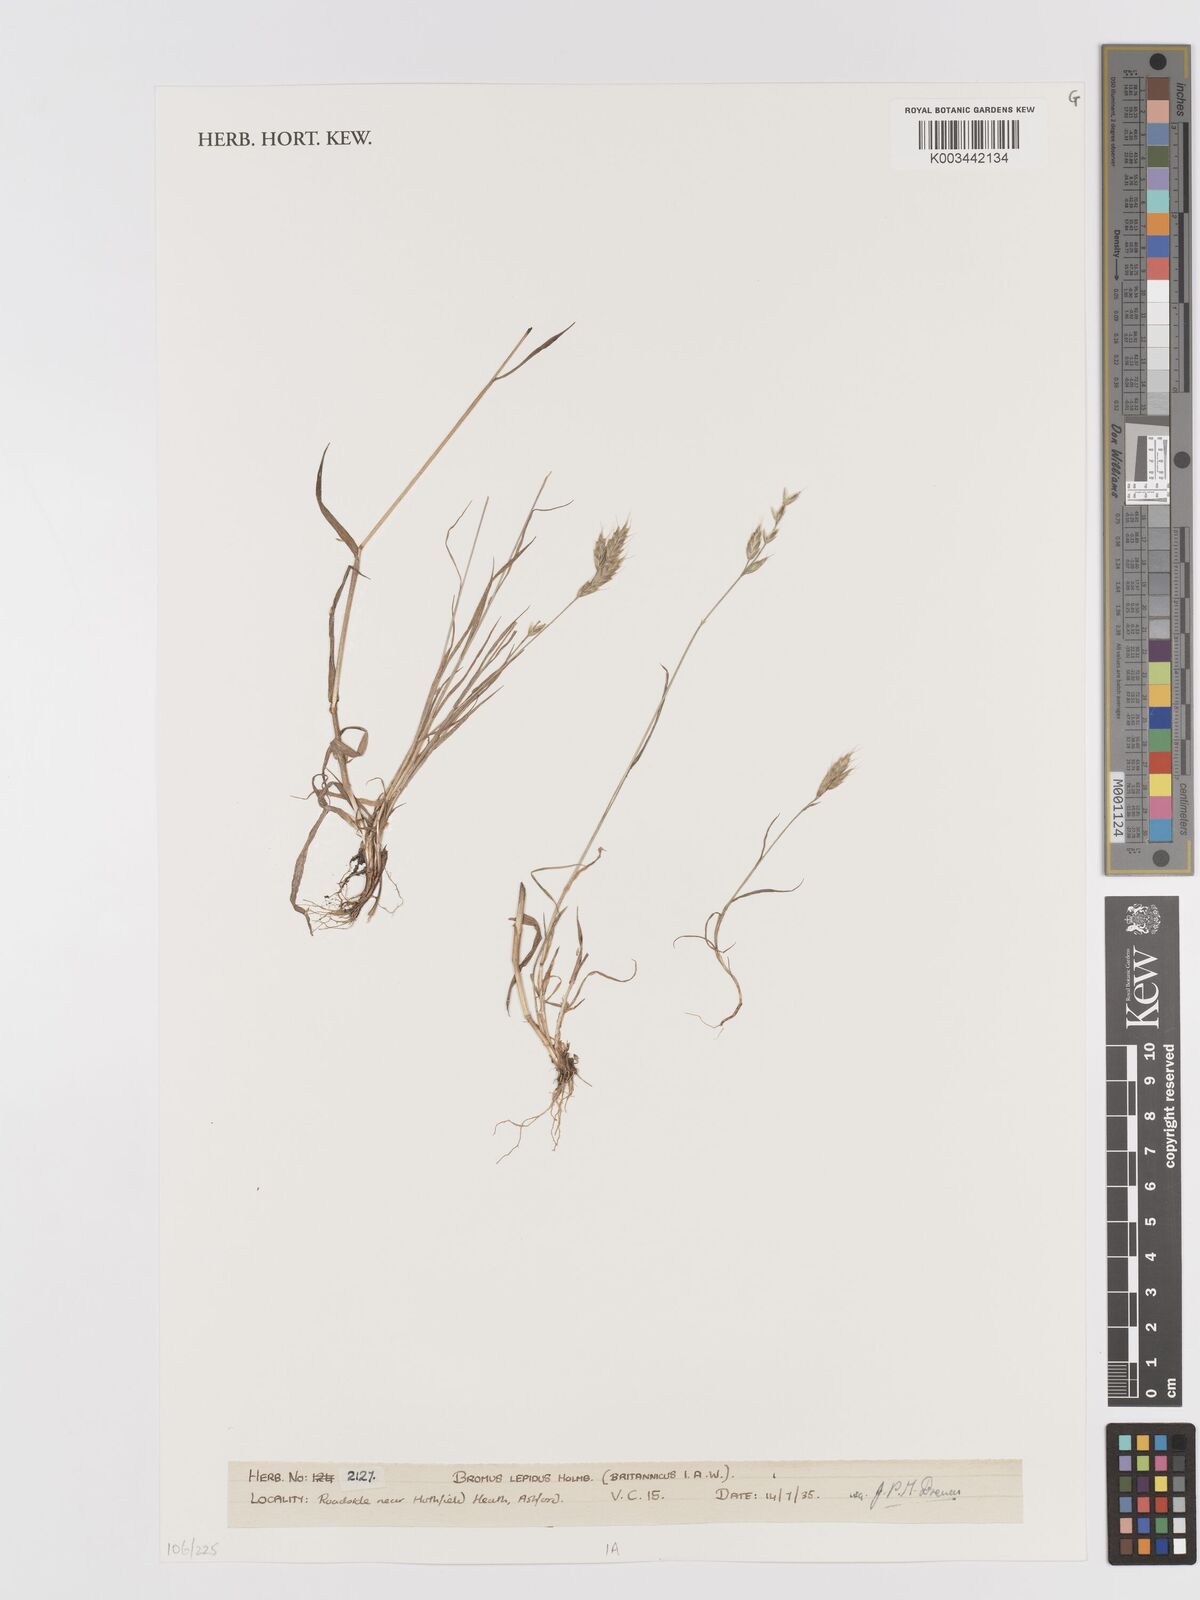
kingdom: Plantae
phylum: Tracheophyta
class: Liliopsida
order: Poales
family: Poaceae
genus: Bromus
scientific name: Bromus lepidus
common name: Slender soft-brome
